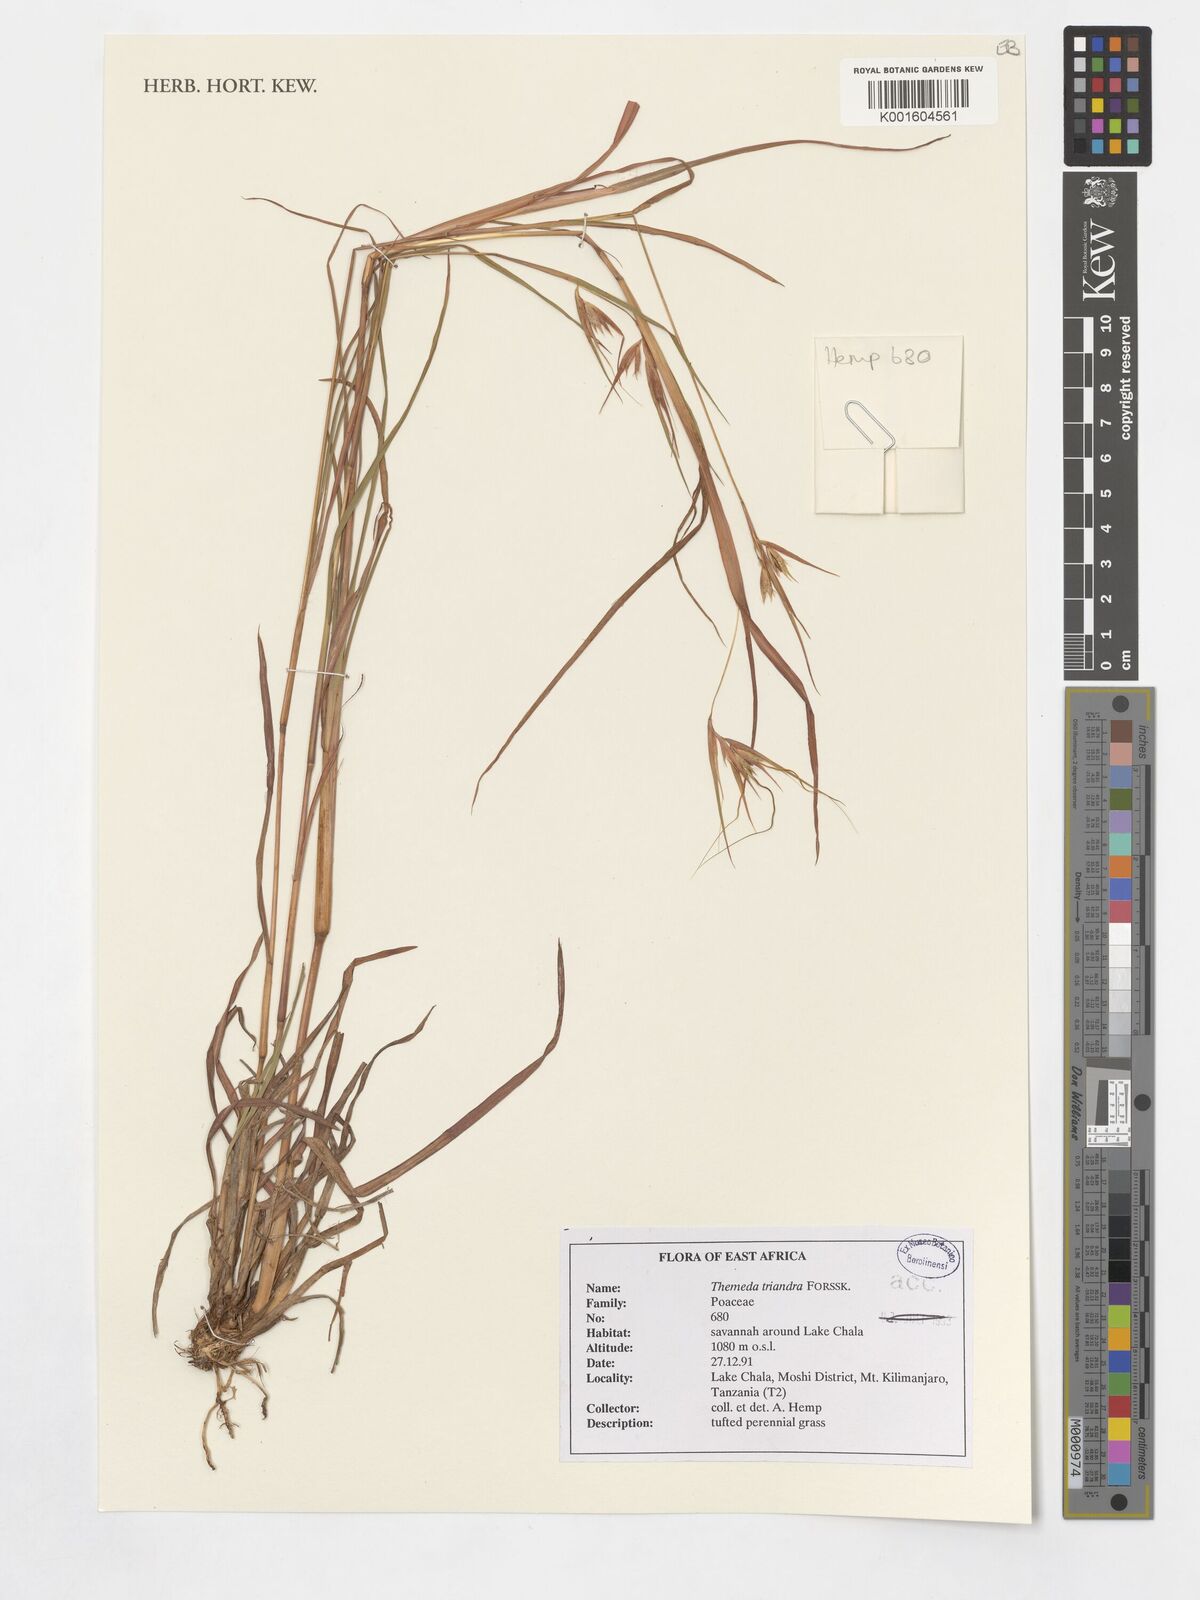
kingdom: Plantae
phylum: Tracheophyta
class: Liliopsida
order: Poales
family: Poaceae
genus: Themeda
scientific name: Themeda triandra
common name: Kangaroo grass
